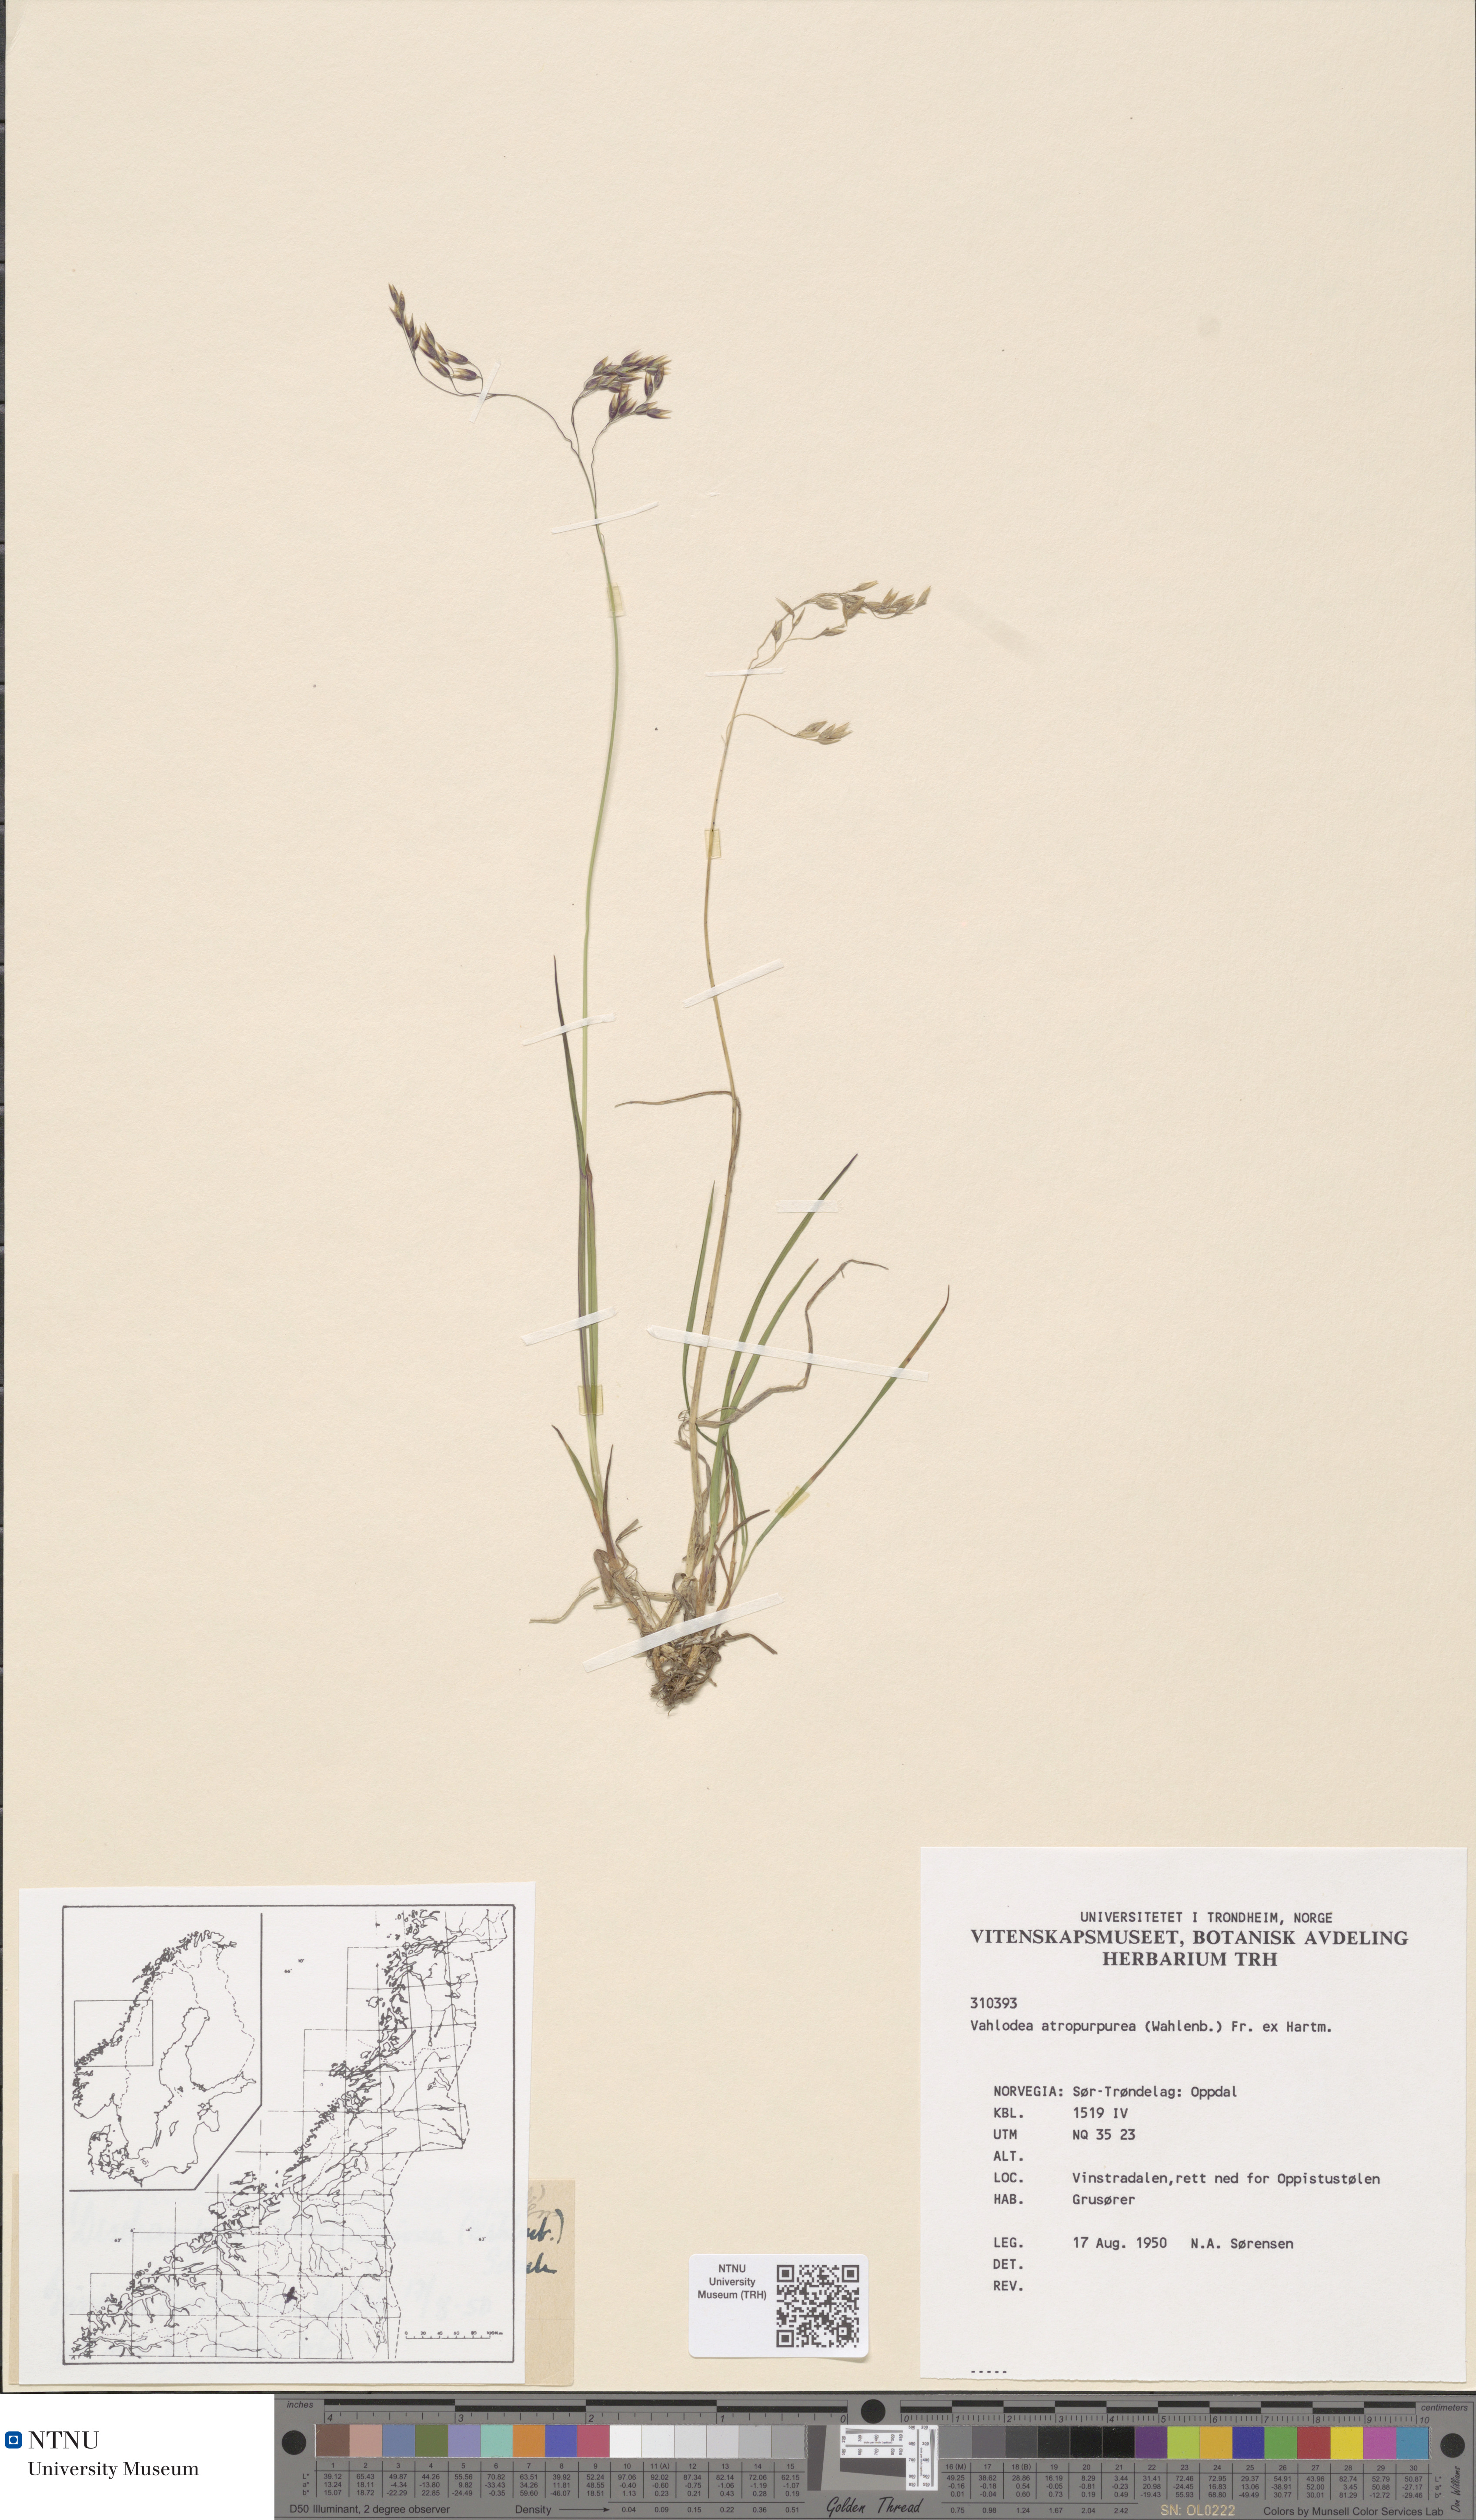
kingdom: Plantae
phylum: Tracheophyta
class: Liliopsida
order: Poales
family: Poaceae
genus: Vahlodea
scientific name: Vahlodea atropurpurea
